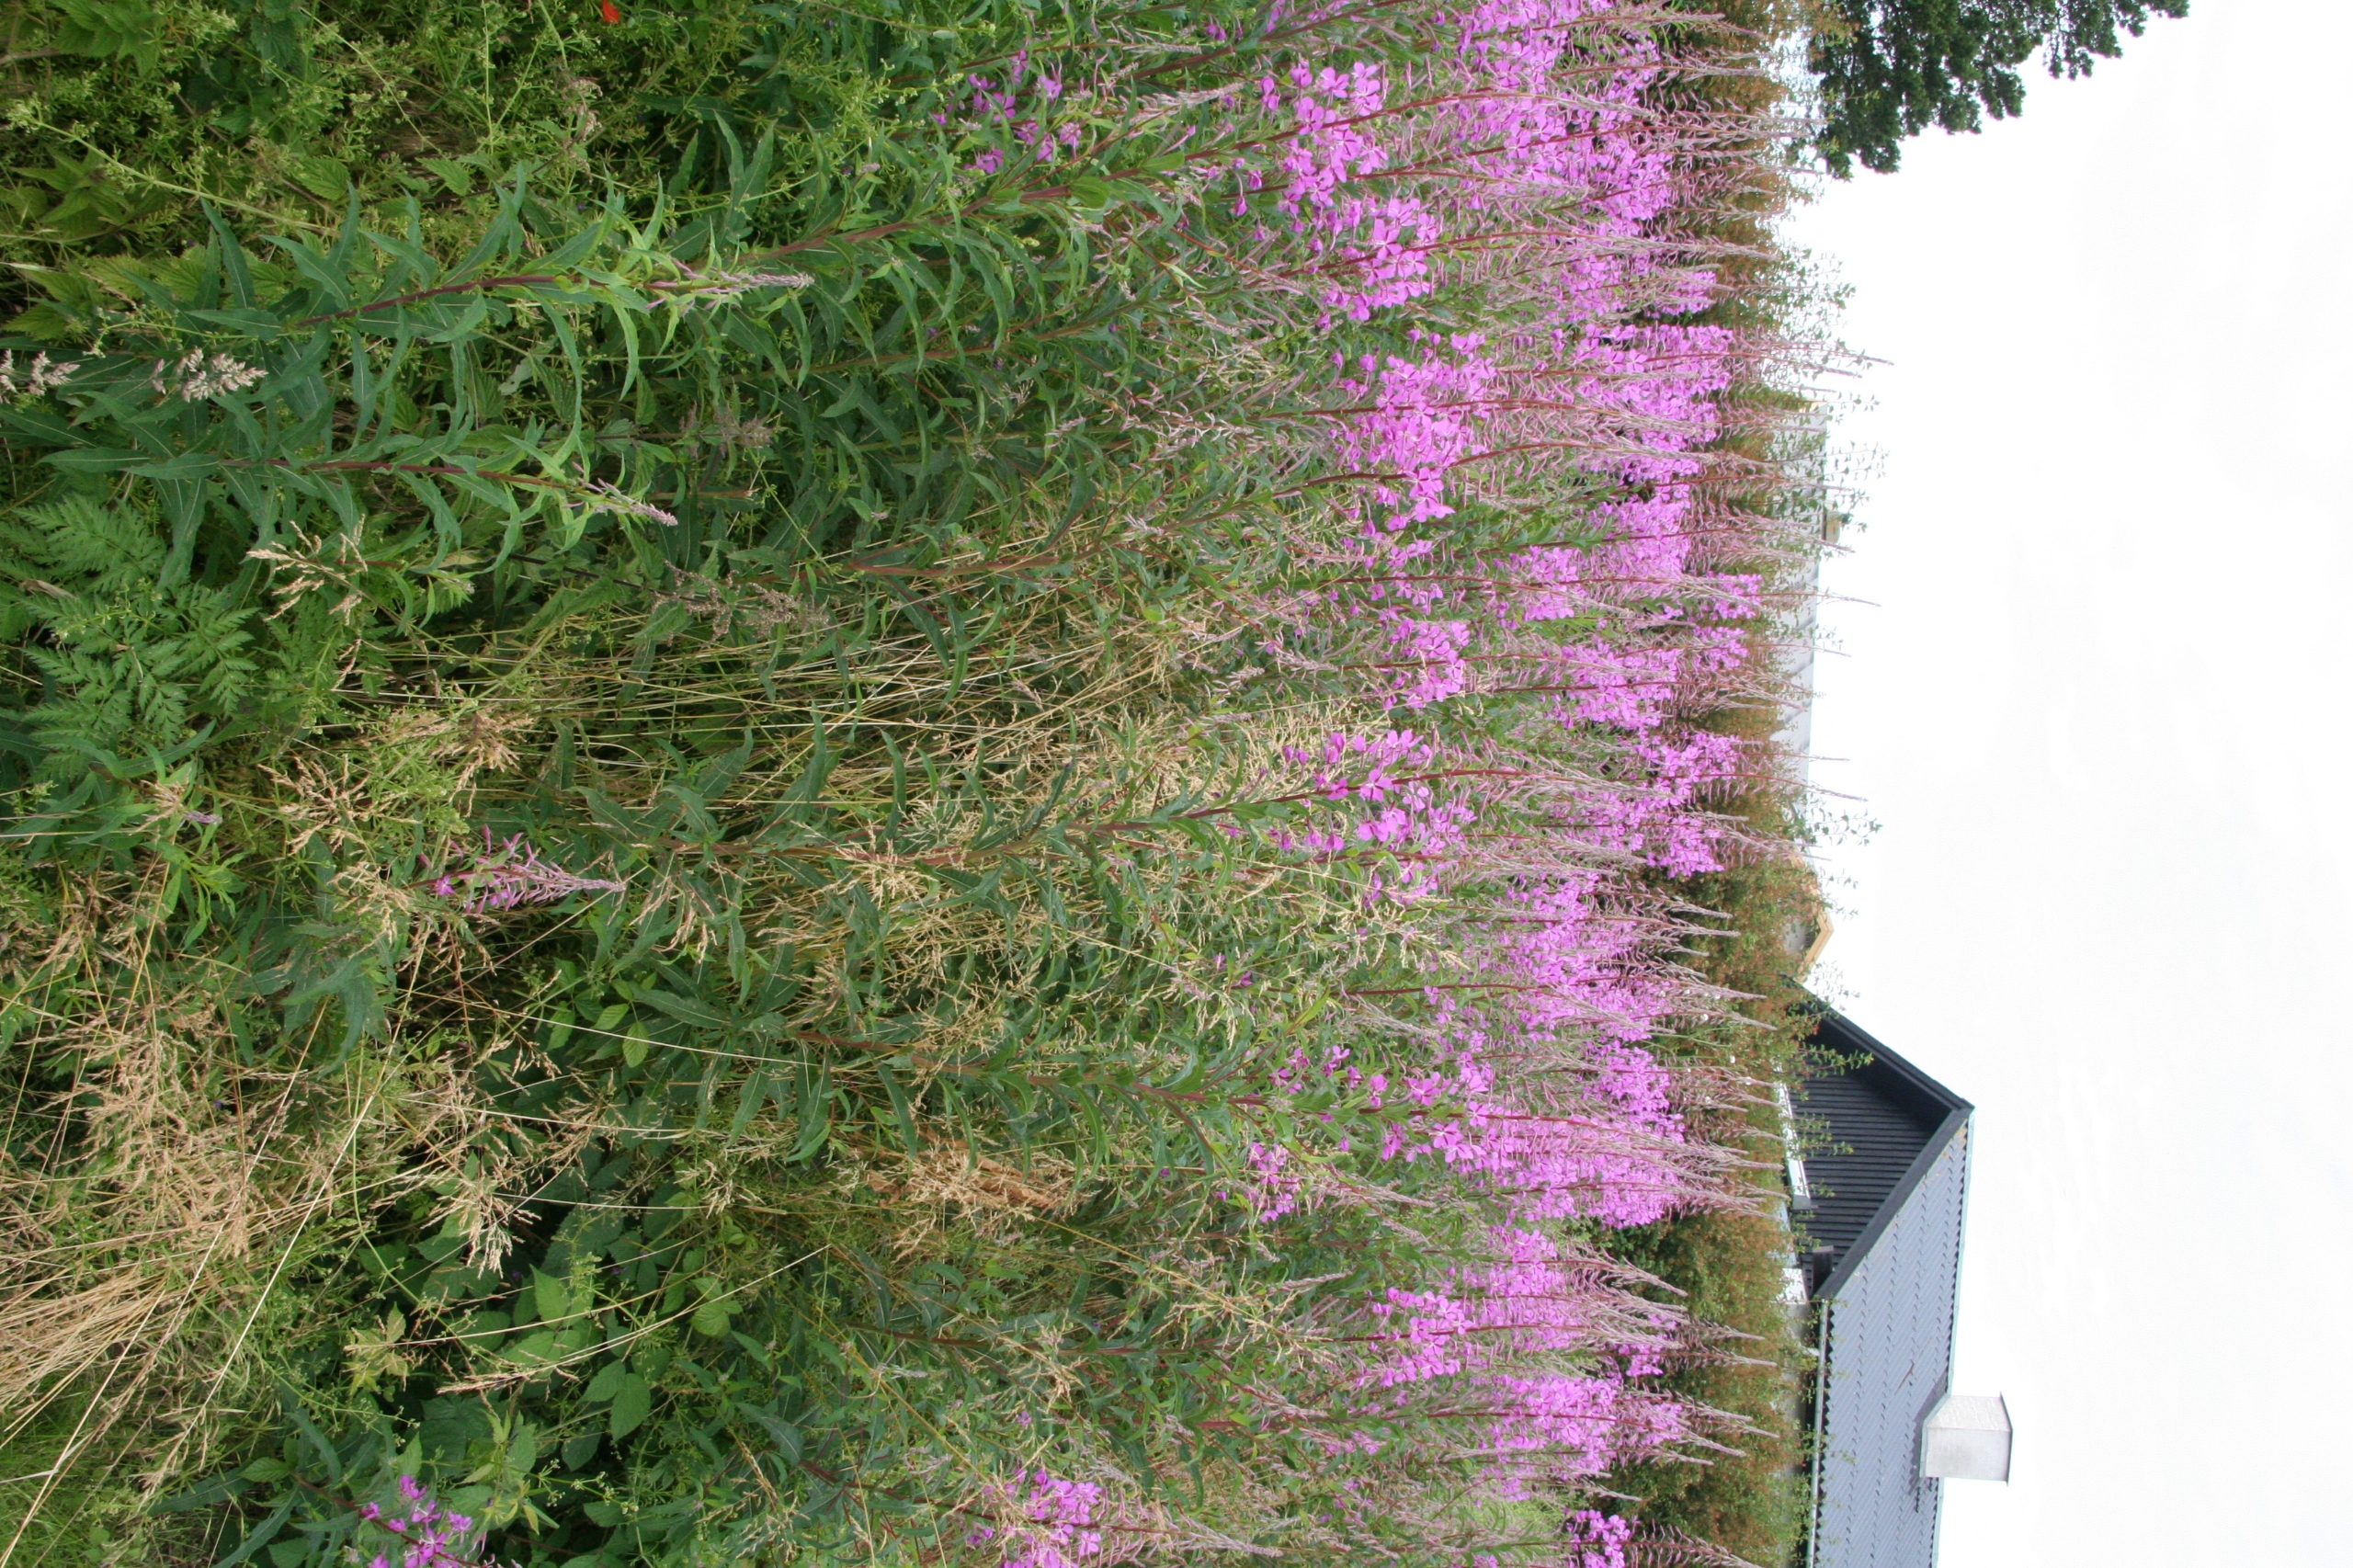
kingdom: Plantae
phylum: Tracheophyta
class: Magnoliopsida
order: Myrtales
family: Onagraceae
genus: Chamaenerion
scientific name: Chamaenerion angustifolium
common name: Gederams
